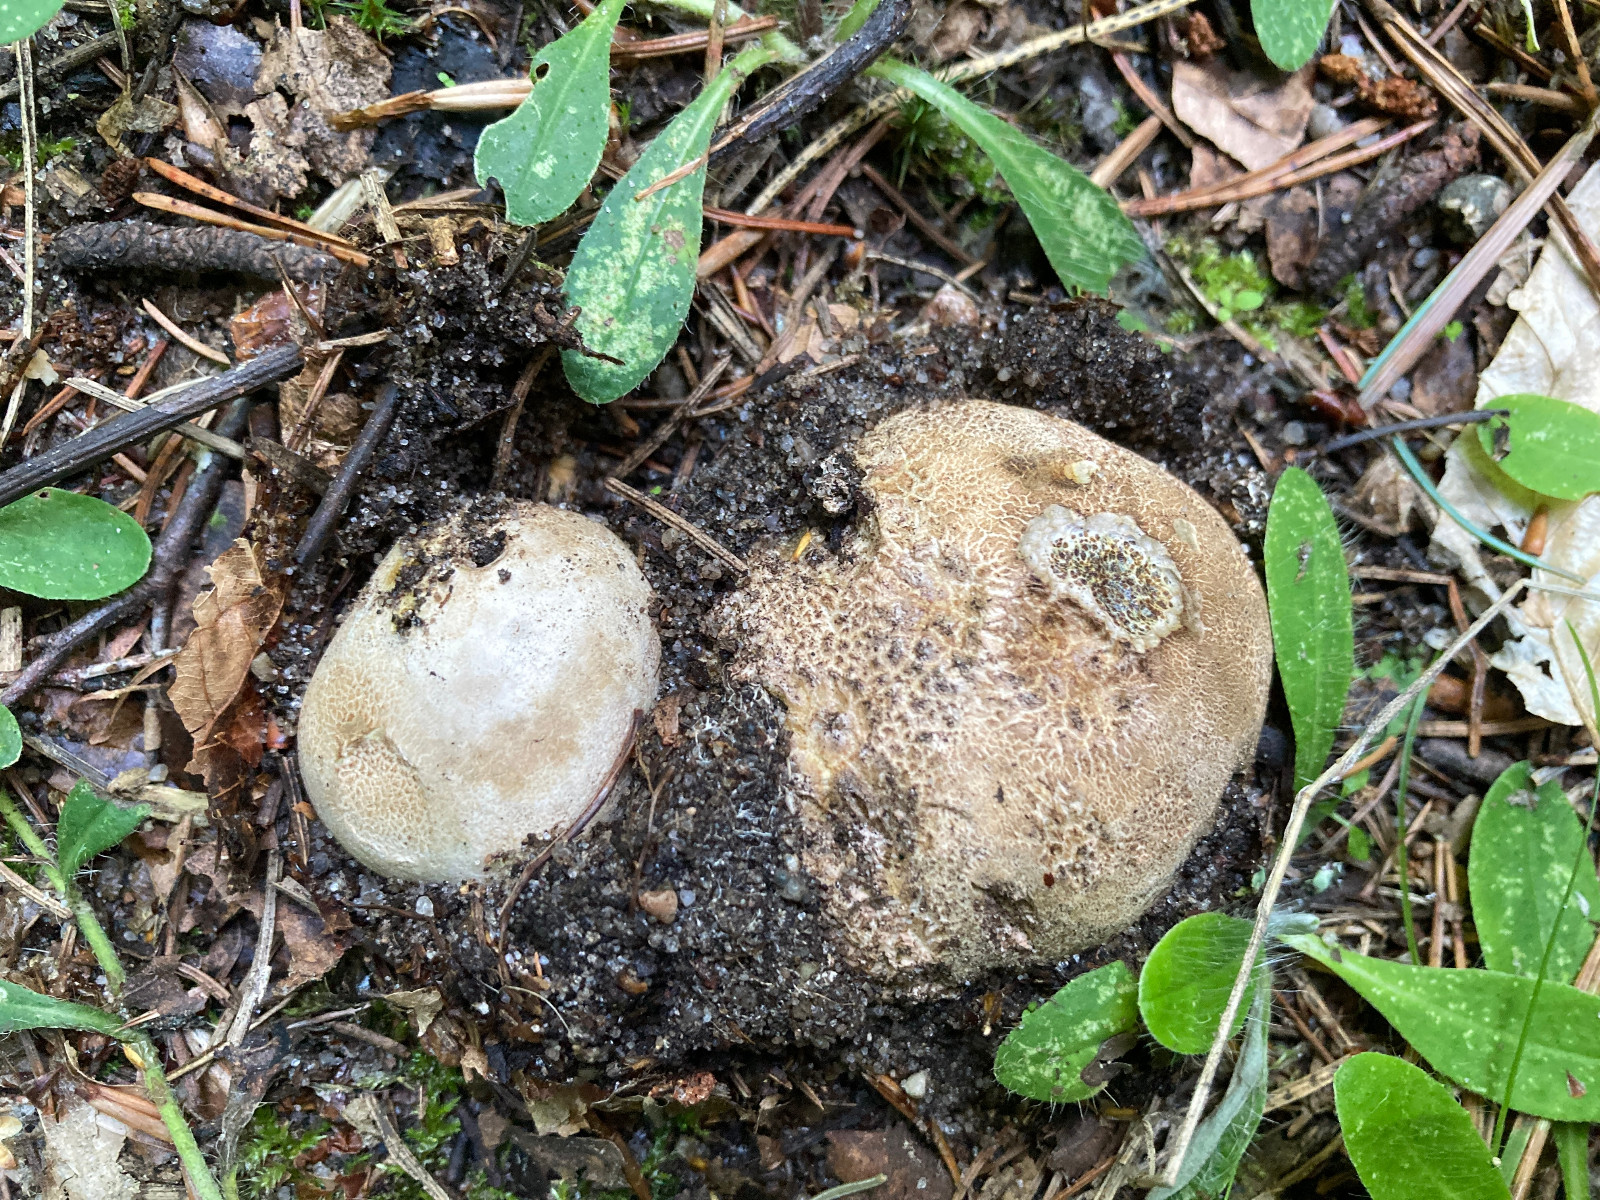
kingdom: Fungi
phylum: Basidiomycota
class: Agaricomycetes
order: Boletales
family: Sclerodermataceae
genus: Scleroderma
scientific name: Scleroderma
